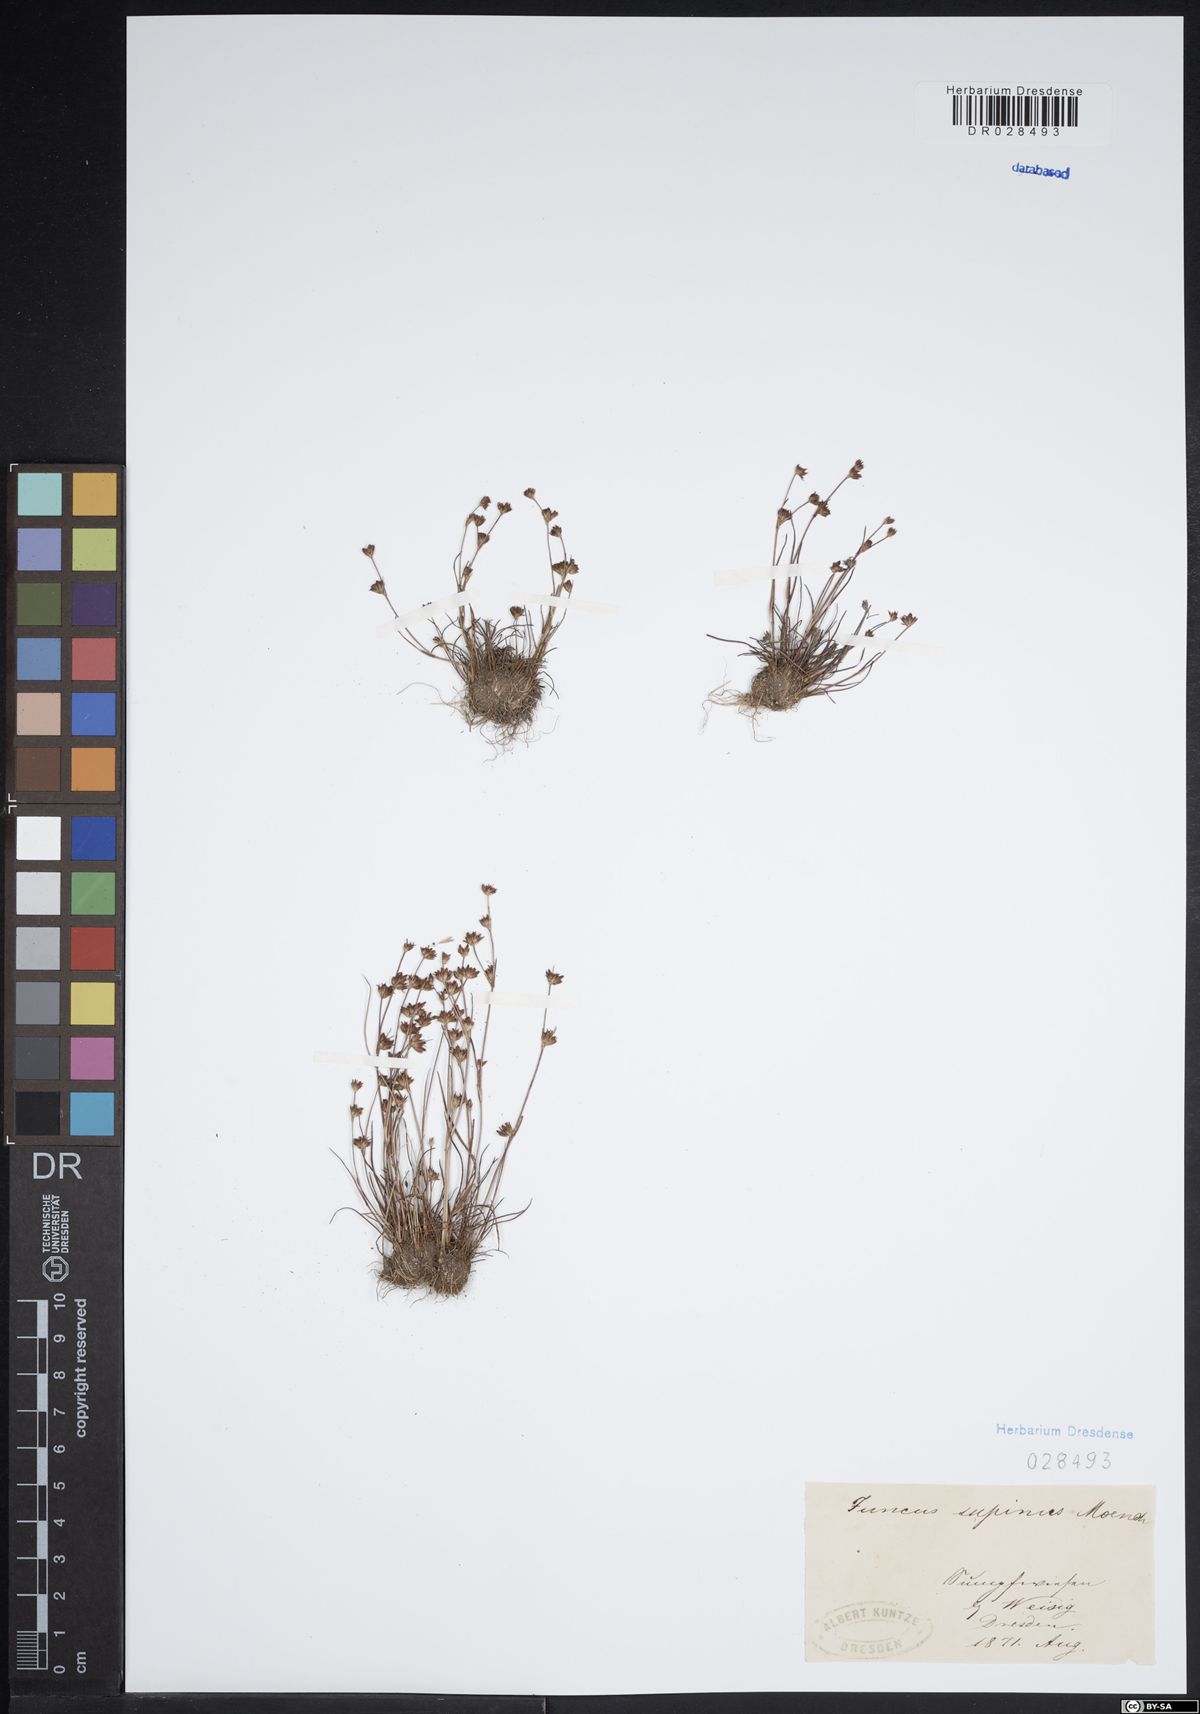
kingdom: Plantae
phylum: Tracheophyta
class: Liliopsida
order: Poales
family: Juncaceae
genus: Juncus
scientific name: Juncus bulbosus
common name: Bulbous rush
